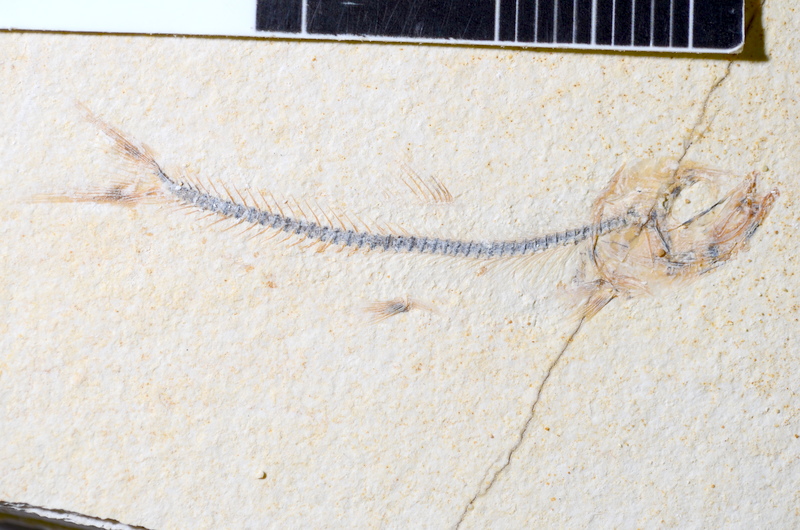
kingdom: Animalia
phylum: Chordata
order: Salmoniformes
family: Orthogonikleithridae
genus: Orthogonikleithrus
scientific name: Orthogonikleithrus hoelli
